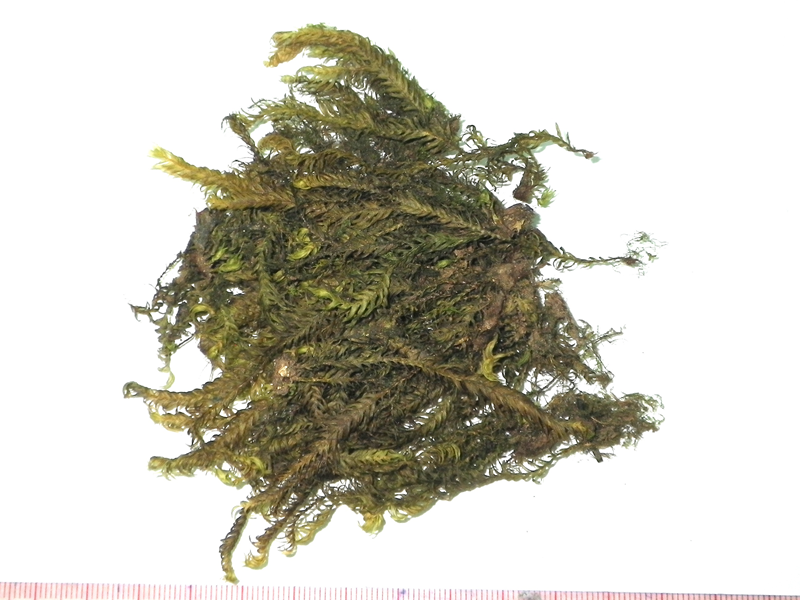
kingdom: Plantae
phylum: Bryophyta
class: Bryopsida
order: Dicranales
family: Fissidentaceae
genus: Fissidens
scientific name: Fissidens nobilis
